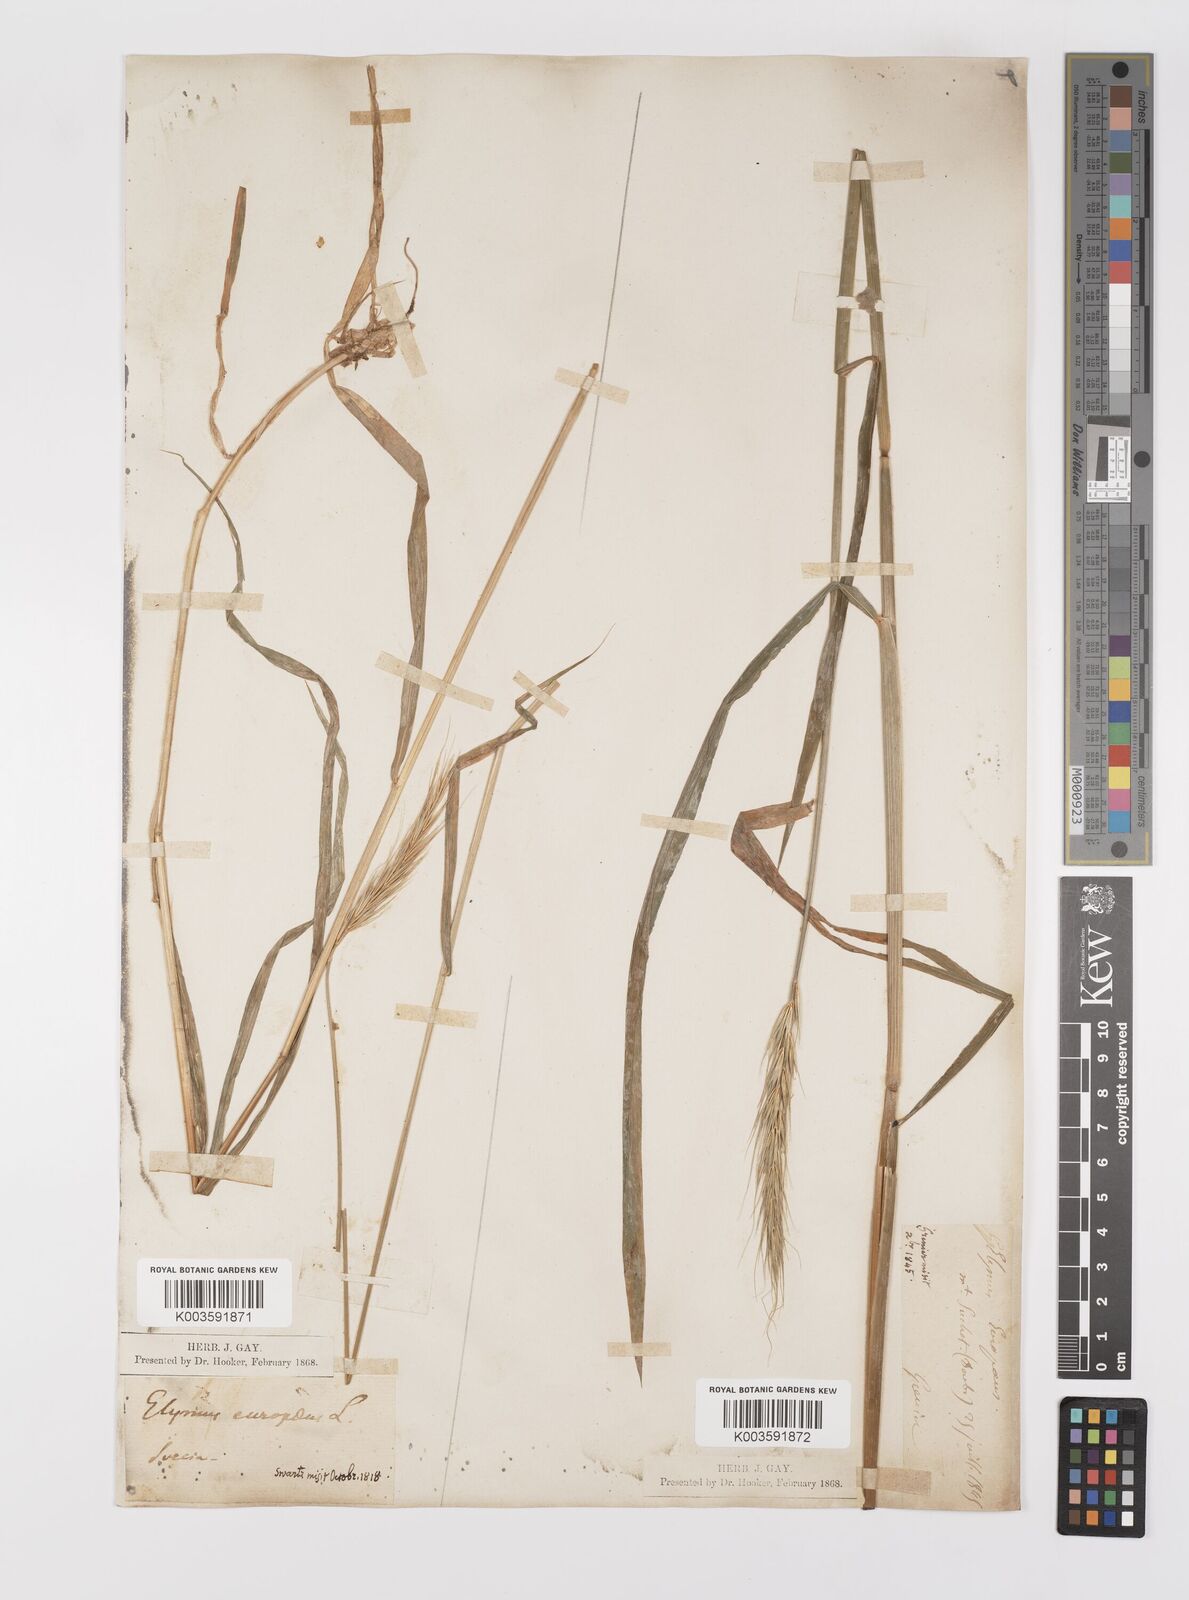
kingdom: Plantae
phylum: Tracheophyta
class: Liliopsida
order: Poales
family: Poaceae
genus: Hordelymus
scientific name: Hordelymus europaeus
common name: Wood-barley
